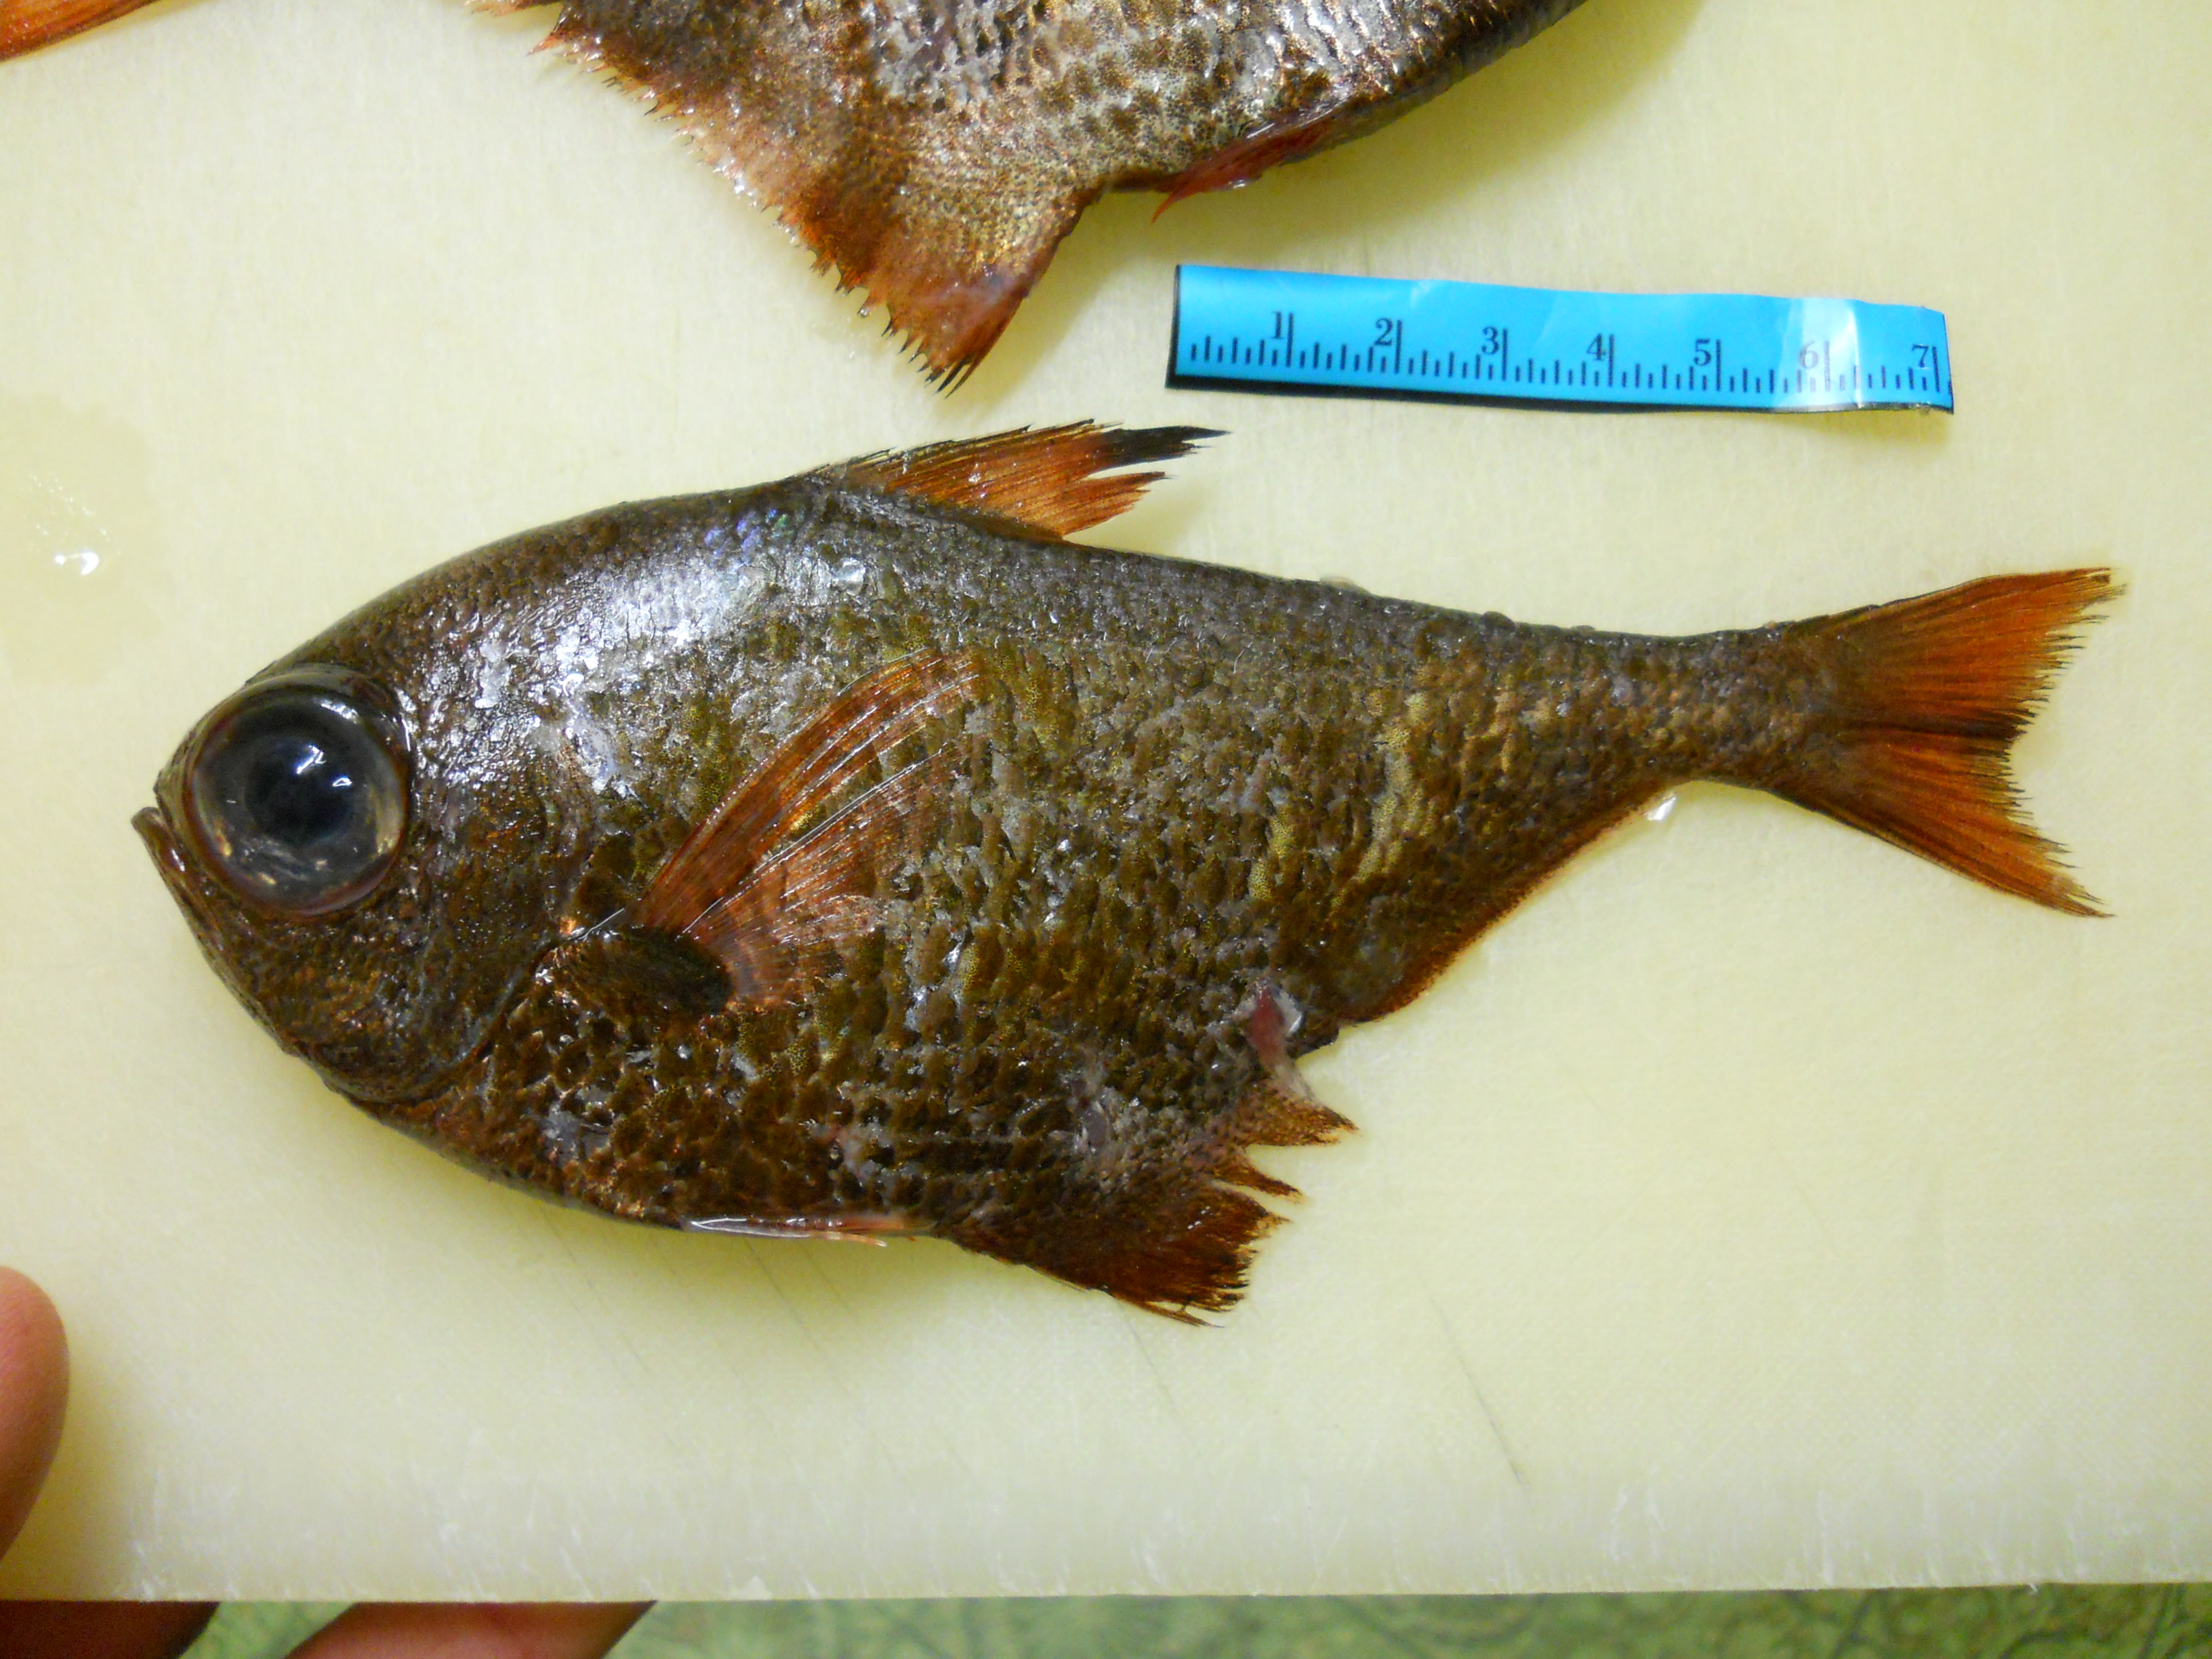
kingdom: Animalia
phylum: Chordata
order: Perciformes
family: Pempheridae
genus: Pempheris
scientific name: Pempheris nesogallica
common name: Vanikoro sweeper
